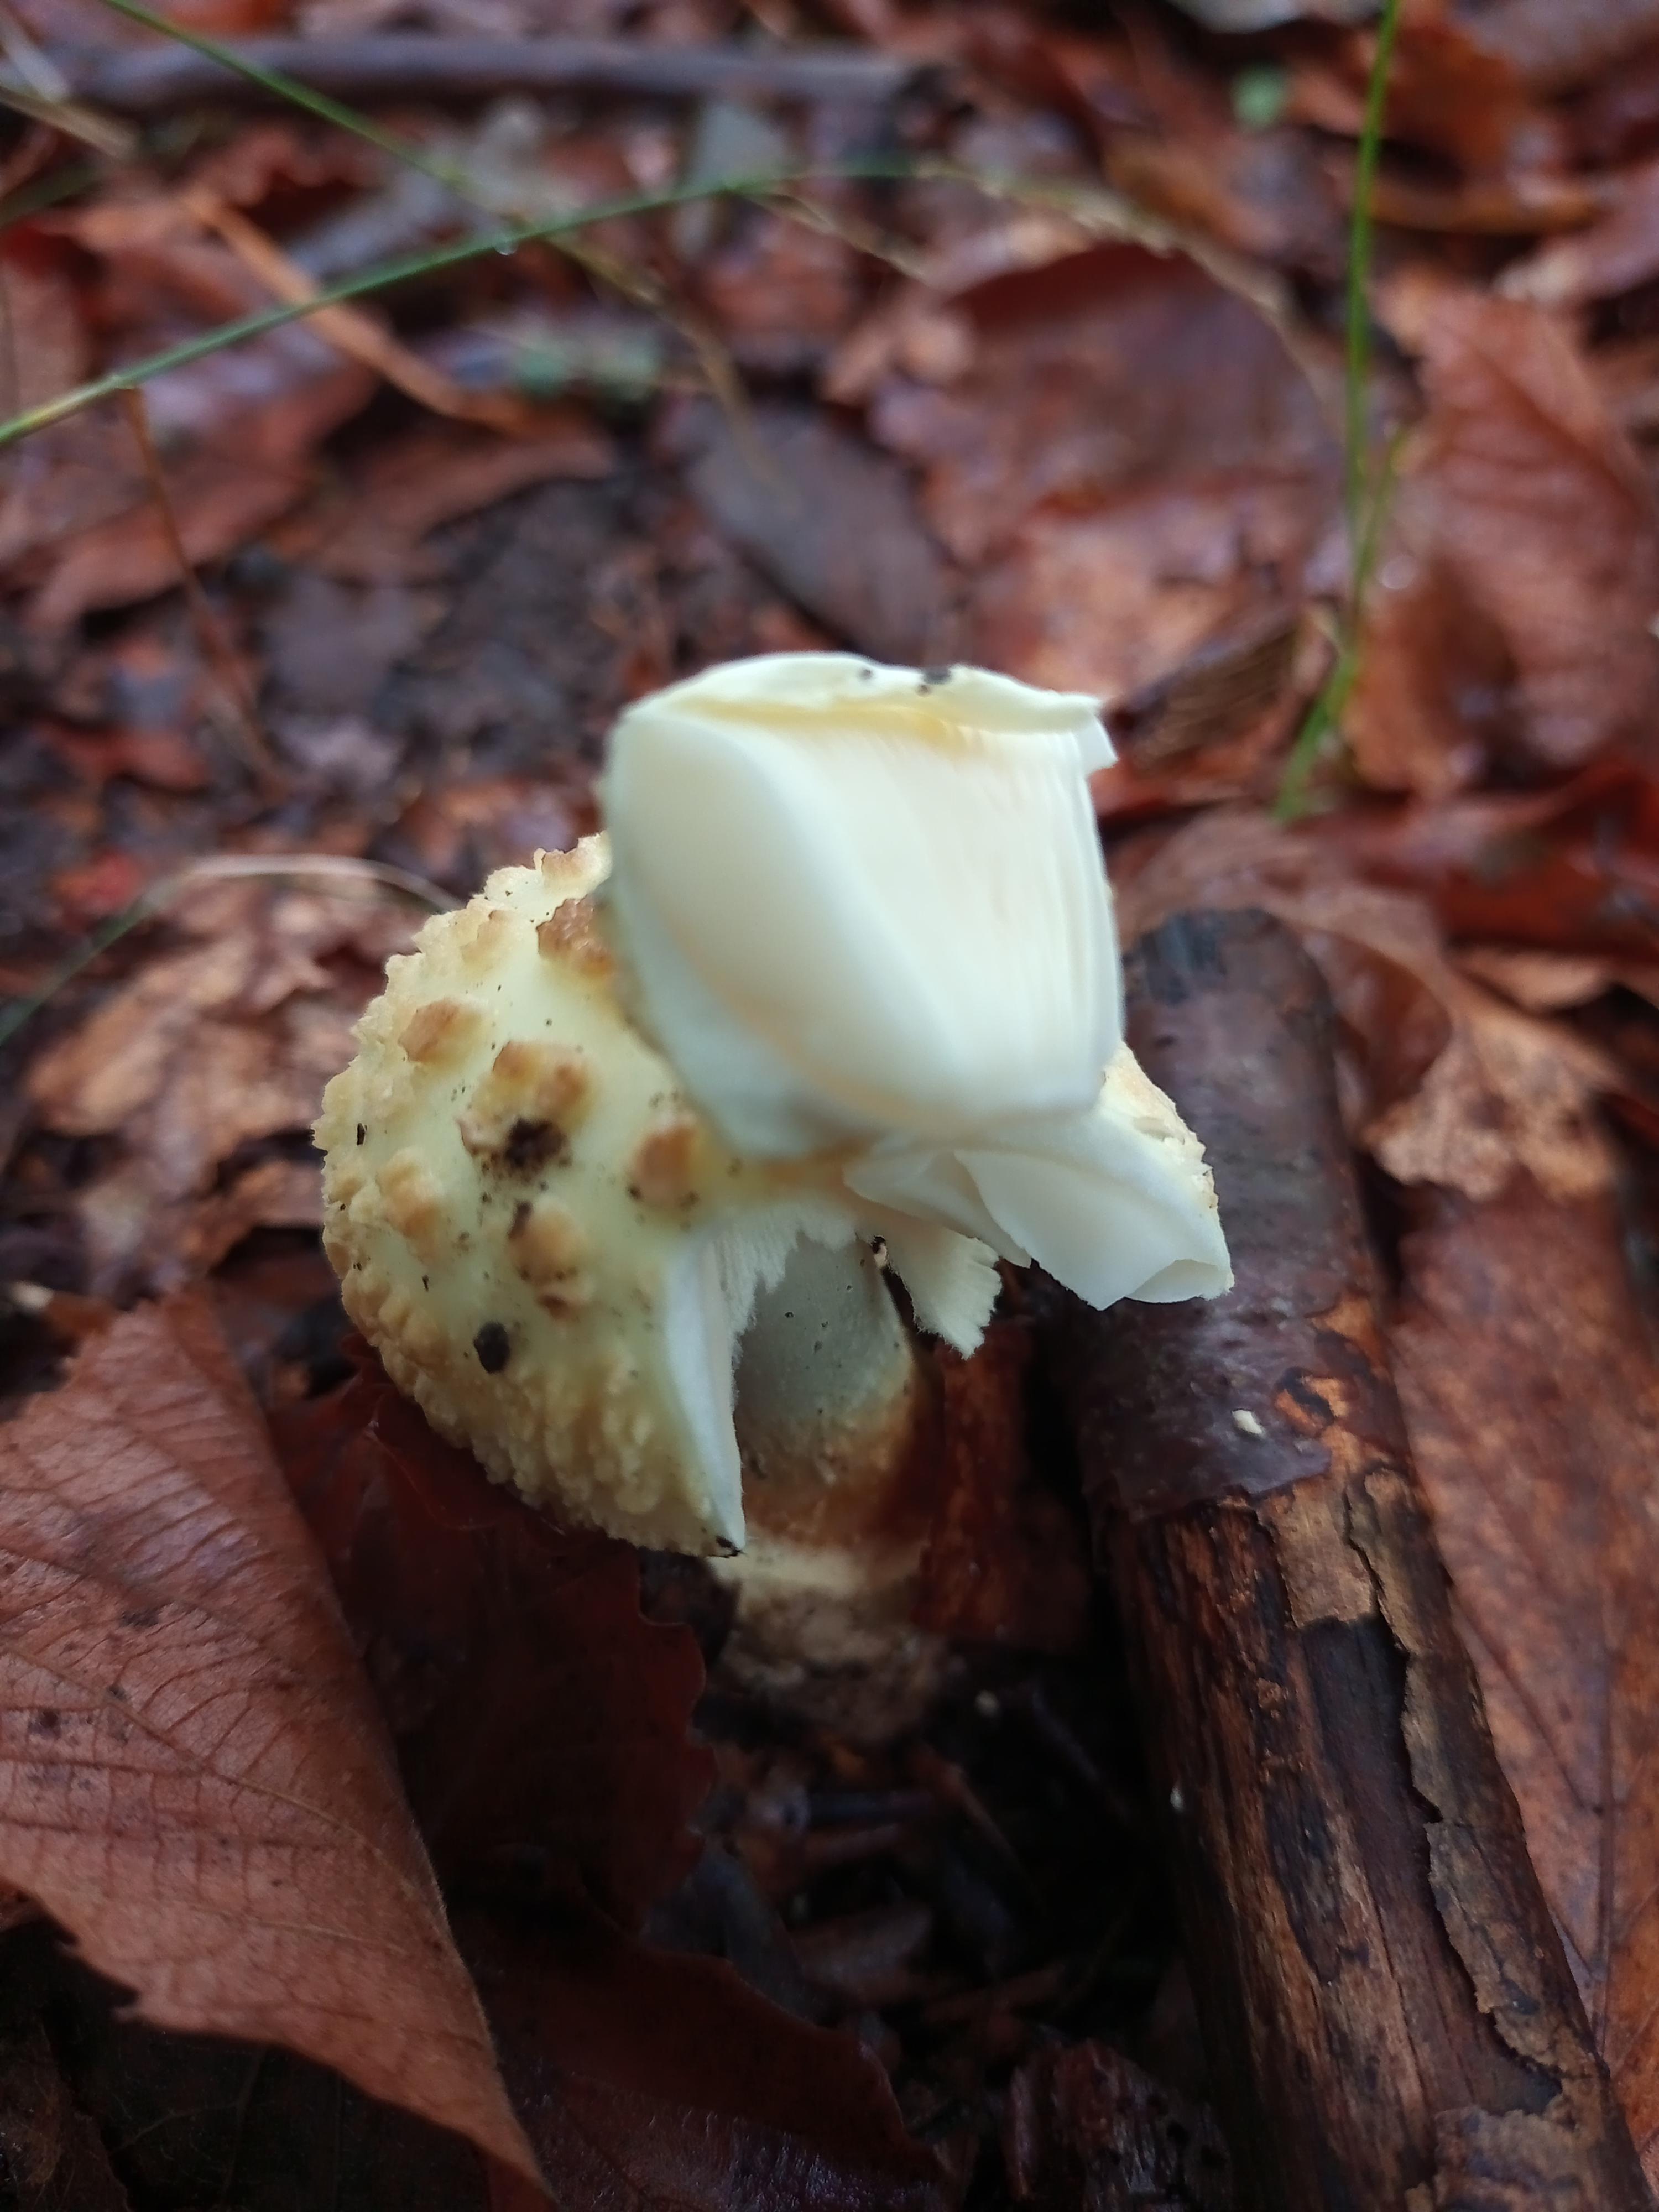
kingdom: Fungi
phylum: Basidiomycota
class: Agaricomycetes
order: Agaricales
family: Amanitaceae
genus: Amanita
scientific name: Amanita citrina
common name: kugleknoldet fluesvamp
